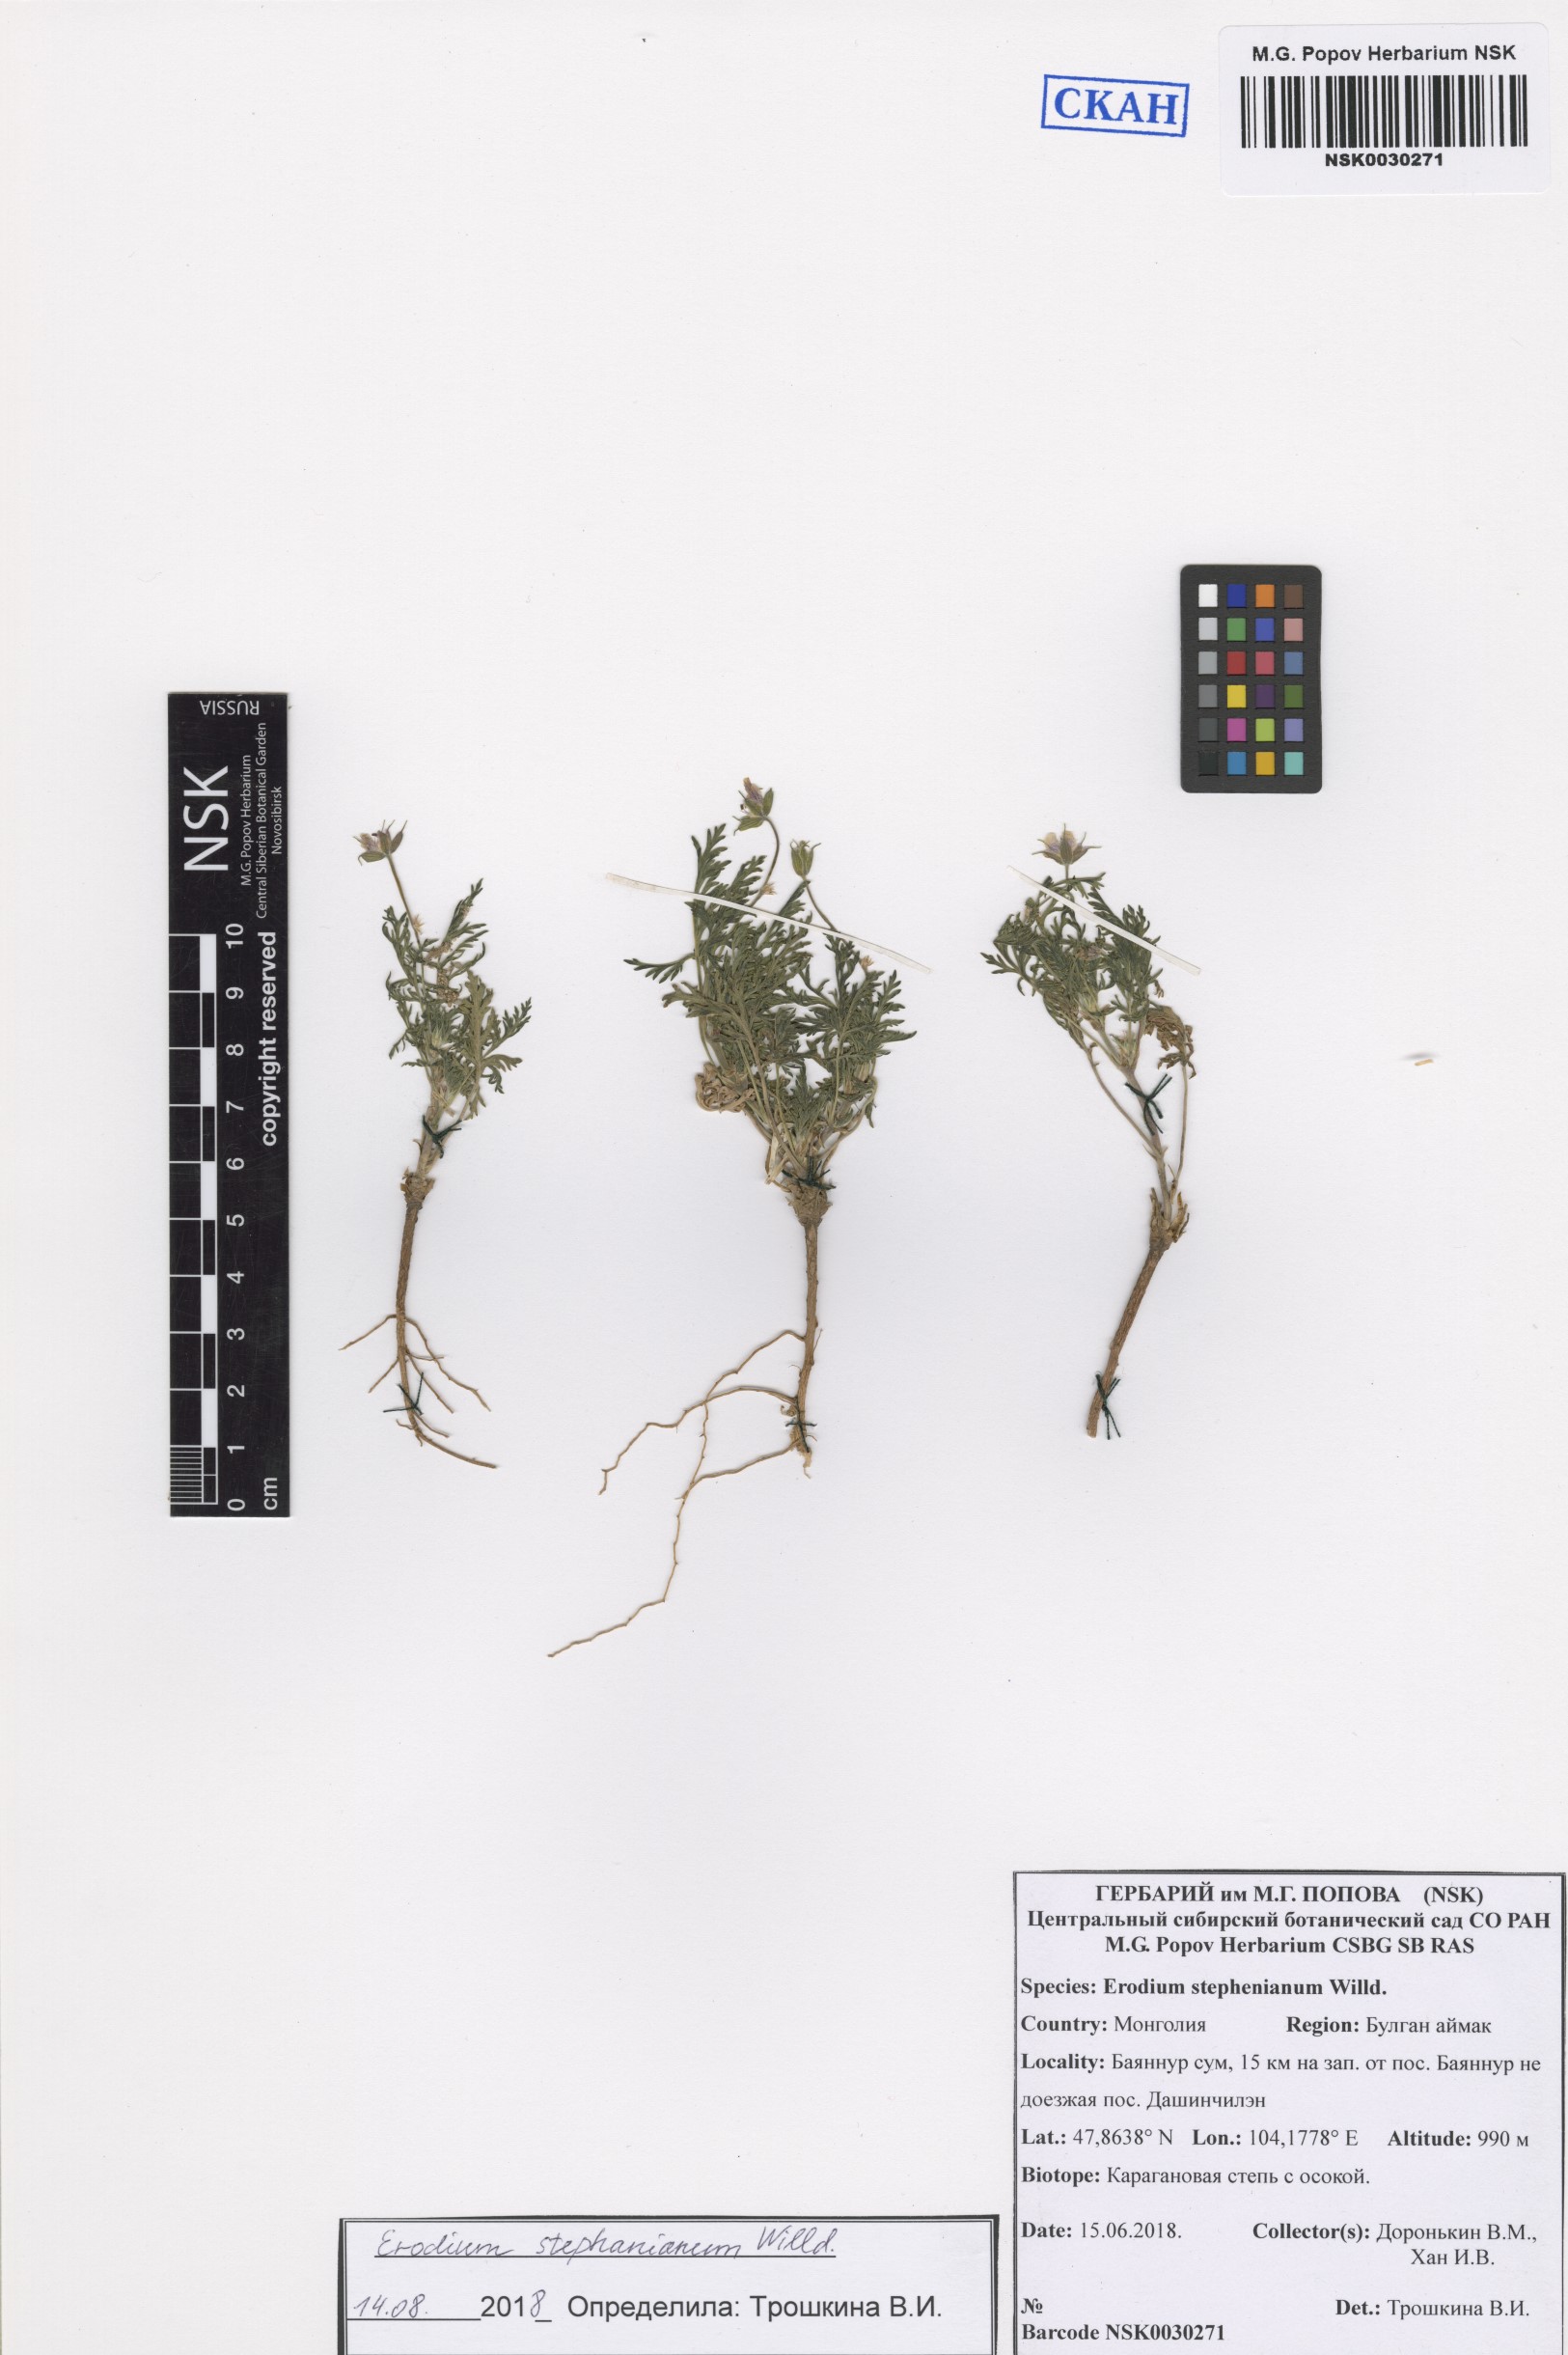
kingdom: Plantae
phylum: Tracheophyta
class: Magnoliopsida
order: Geraniales
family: Geraniaceae
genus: Erodium
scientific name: Erodium stephanianum
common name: Stephen's stork's bill
